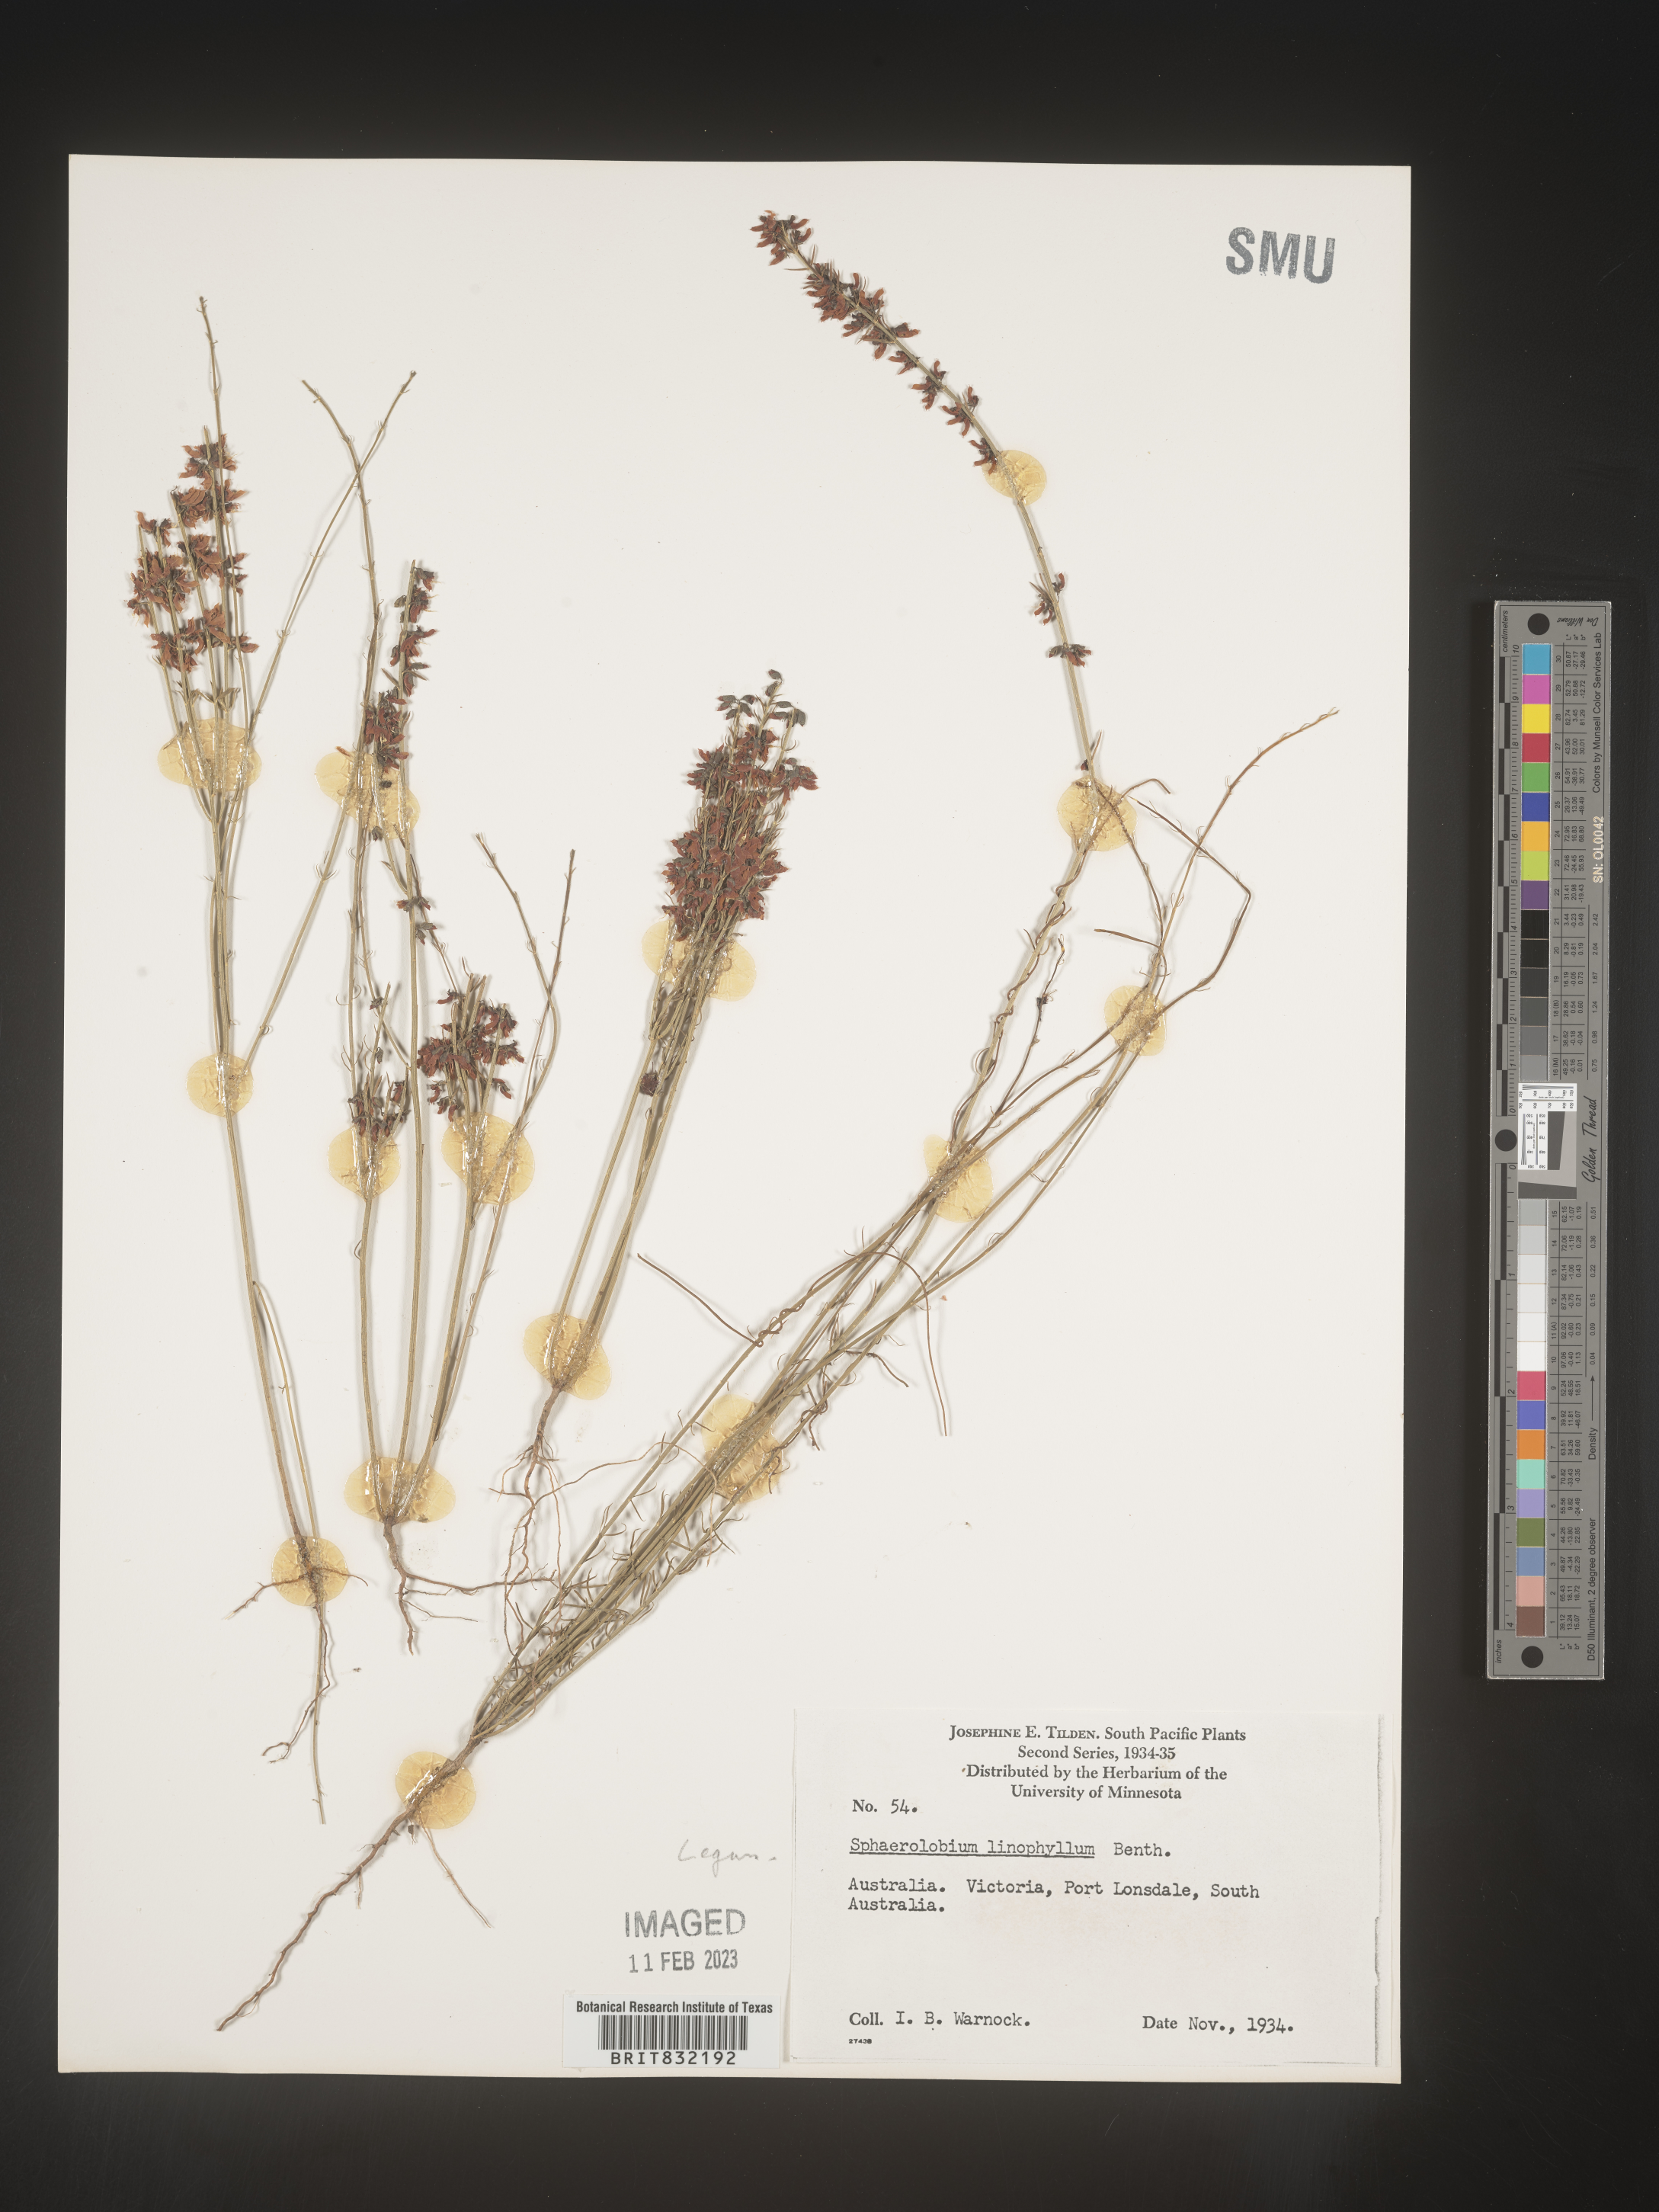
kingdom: Plantae
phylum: Tracheophyta
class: Magnoliopsida
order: Fabales
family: Fabaceae
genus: Sphaerolobium
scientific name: Sphaerolobium
